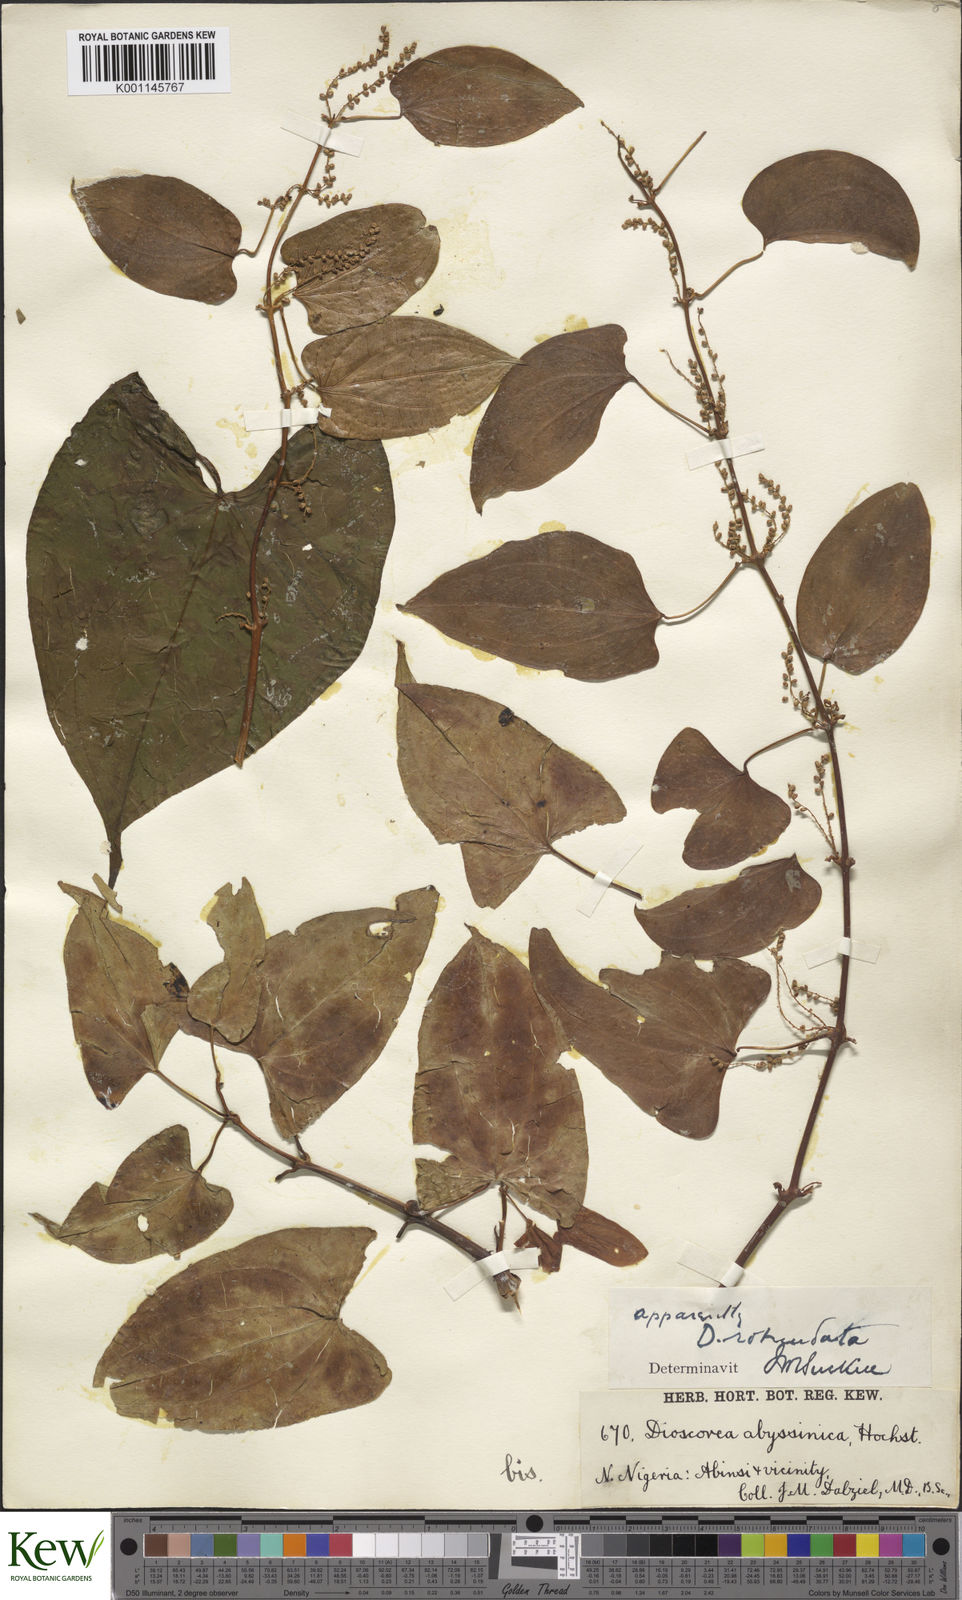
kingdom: Plantae
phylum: Tracheophyta
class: Liliopsida
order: Dioscoreales
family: Dioscoreaceae
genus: Dioscorea
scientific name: Dioscorea cayenensis
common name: Attoto yam
